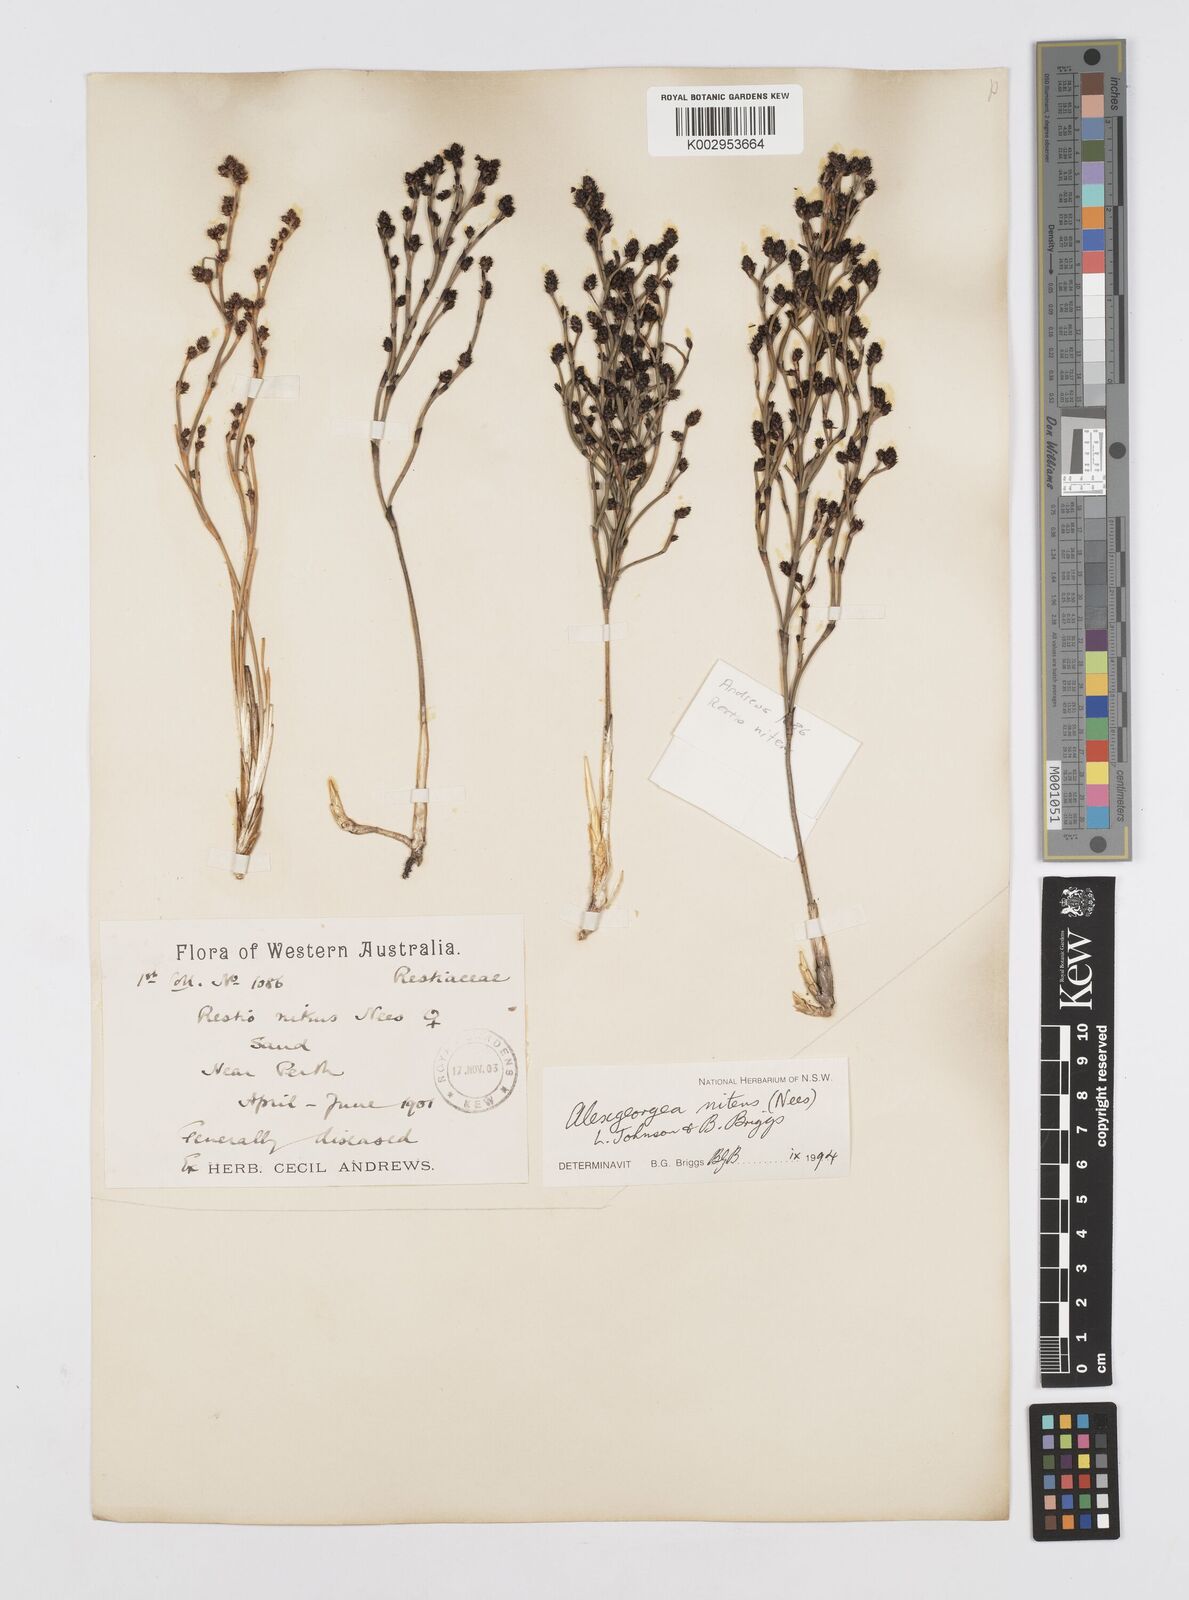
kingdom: Plantae
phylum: Tracheophyta
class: Liliopsida
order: Poales
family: Restionaceae
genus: Alexgeorgea
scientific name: Alexgeorgea nitens
